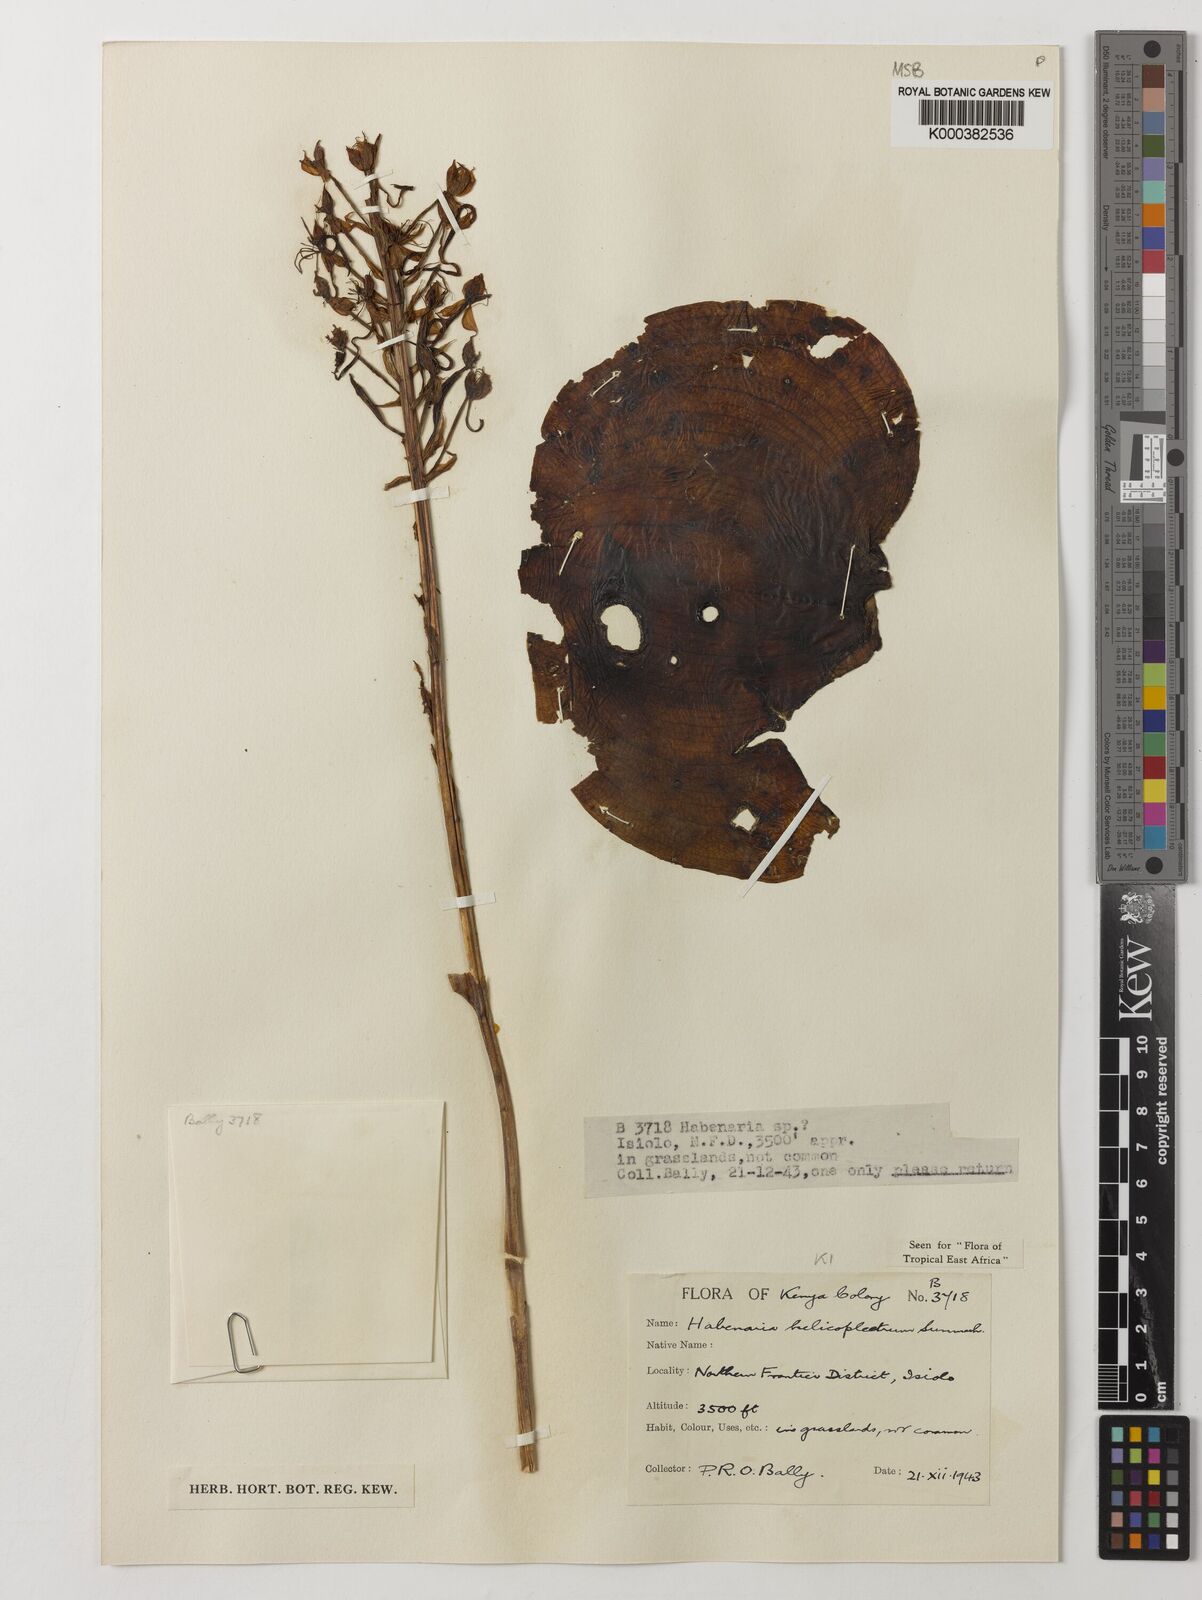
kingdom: Plantae
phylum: Tracheophyta
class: Liliopsida
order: Asparagales
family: Orchidaceae
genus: Habenaria
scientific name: Habenaria helicoplectrum
